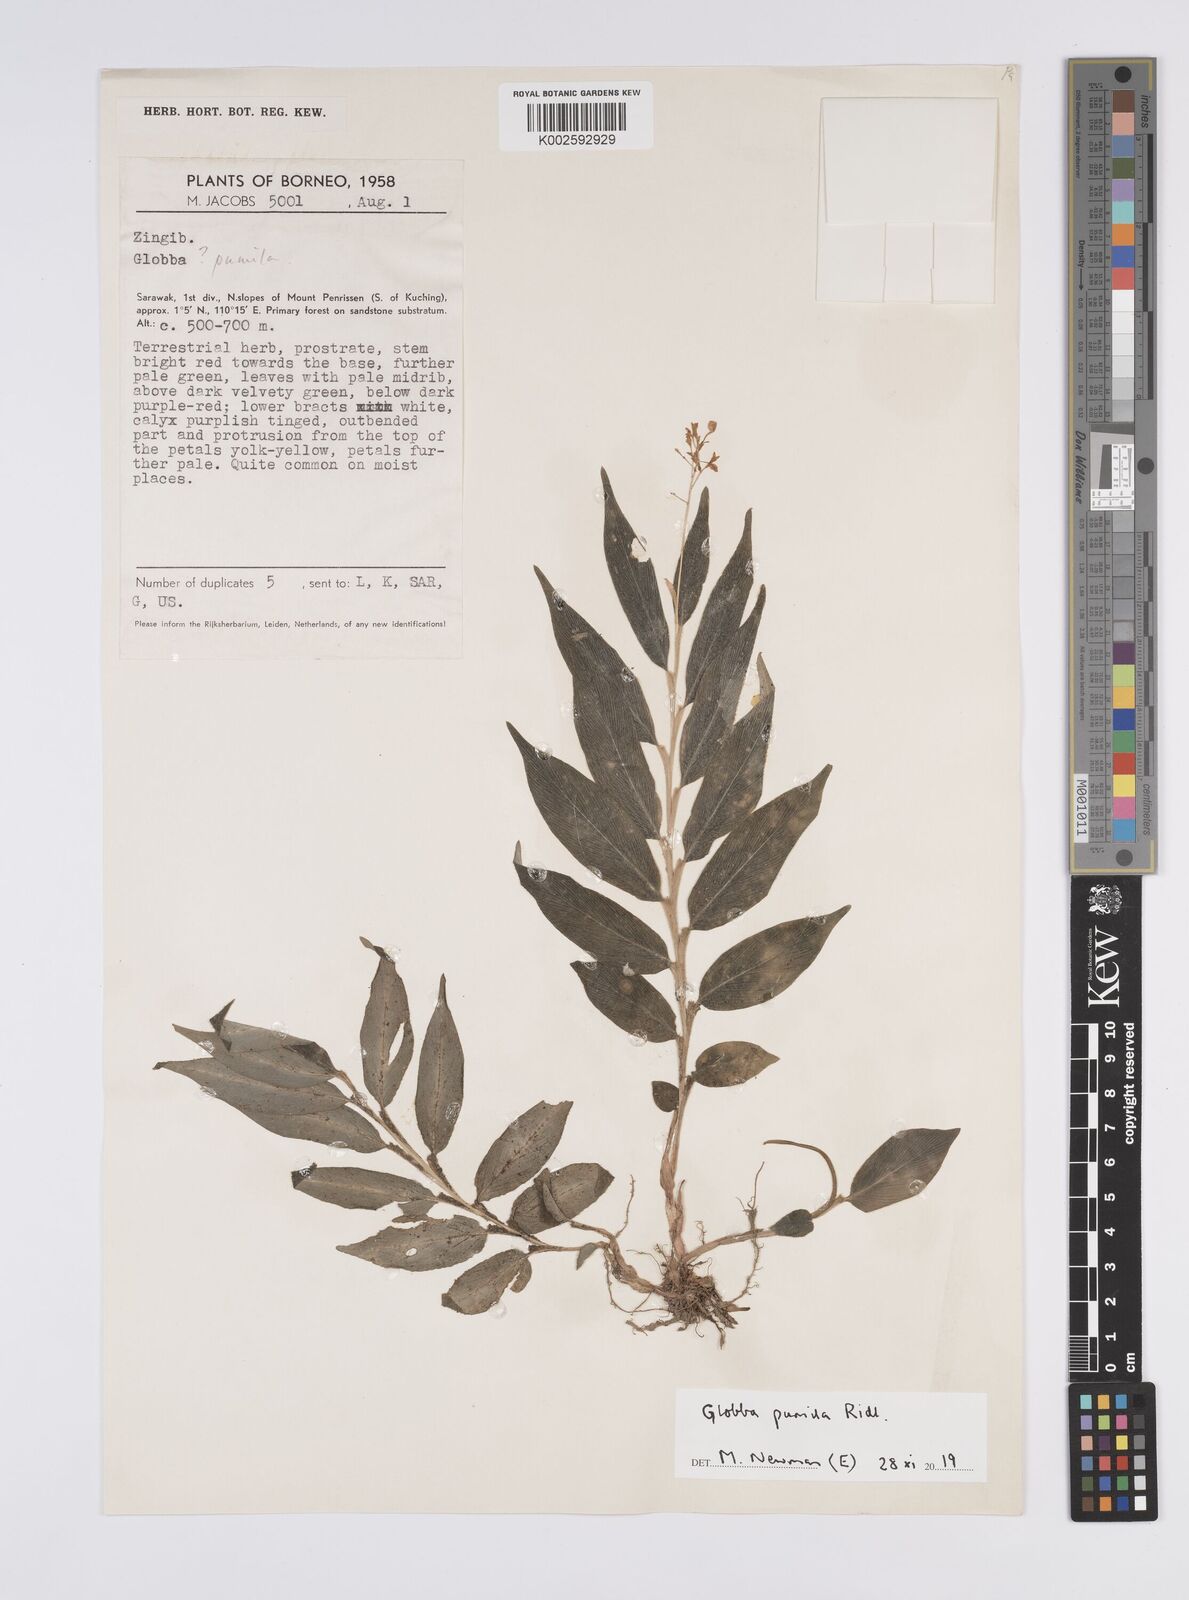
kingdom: Plantae
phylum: Tracheophyta
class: Liliopsida
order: Zingiberales
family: Zingiberaceae
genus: Globba
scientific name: Globba pumila
